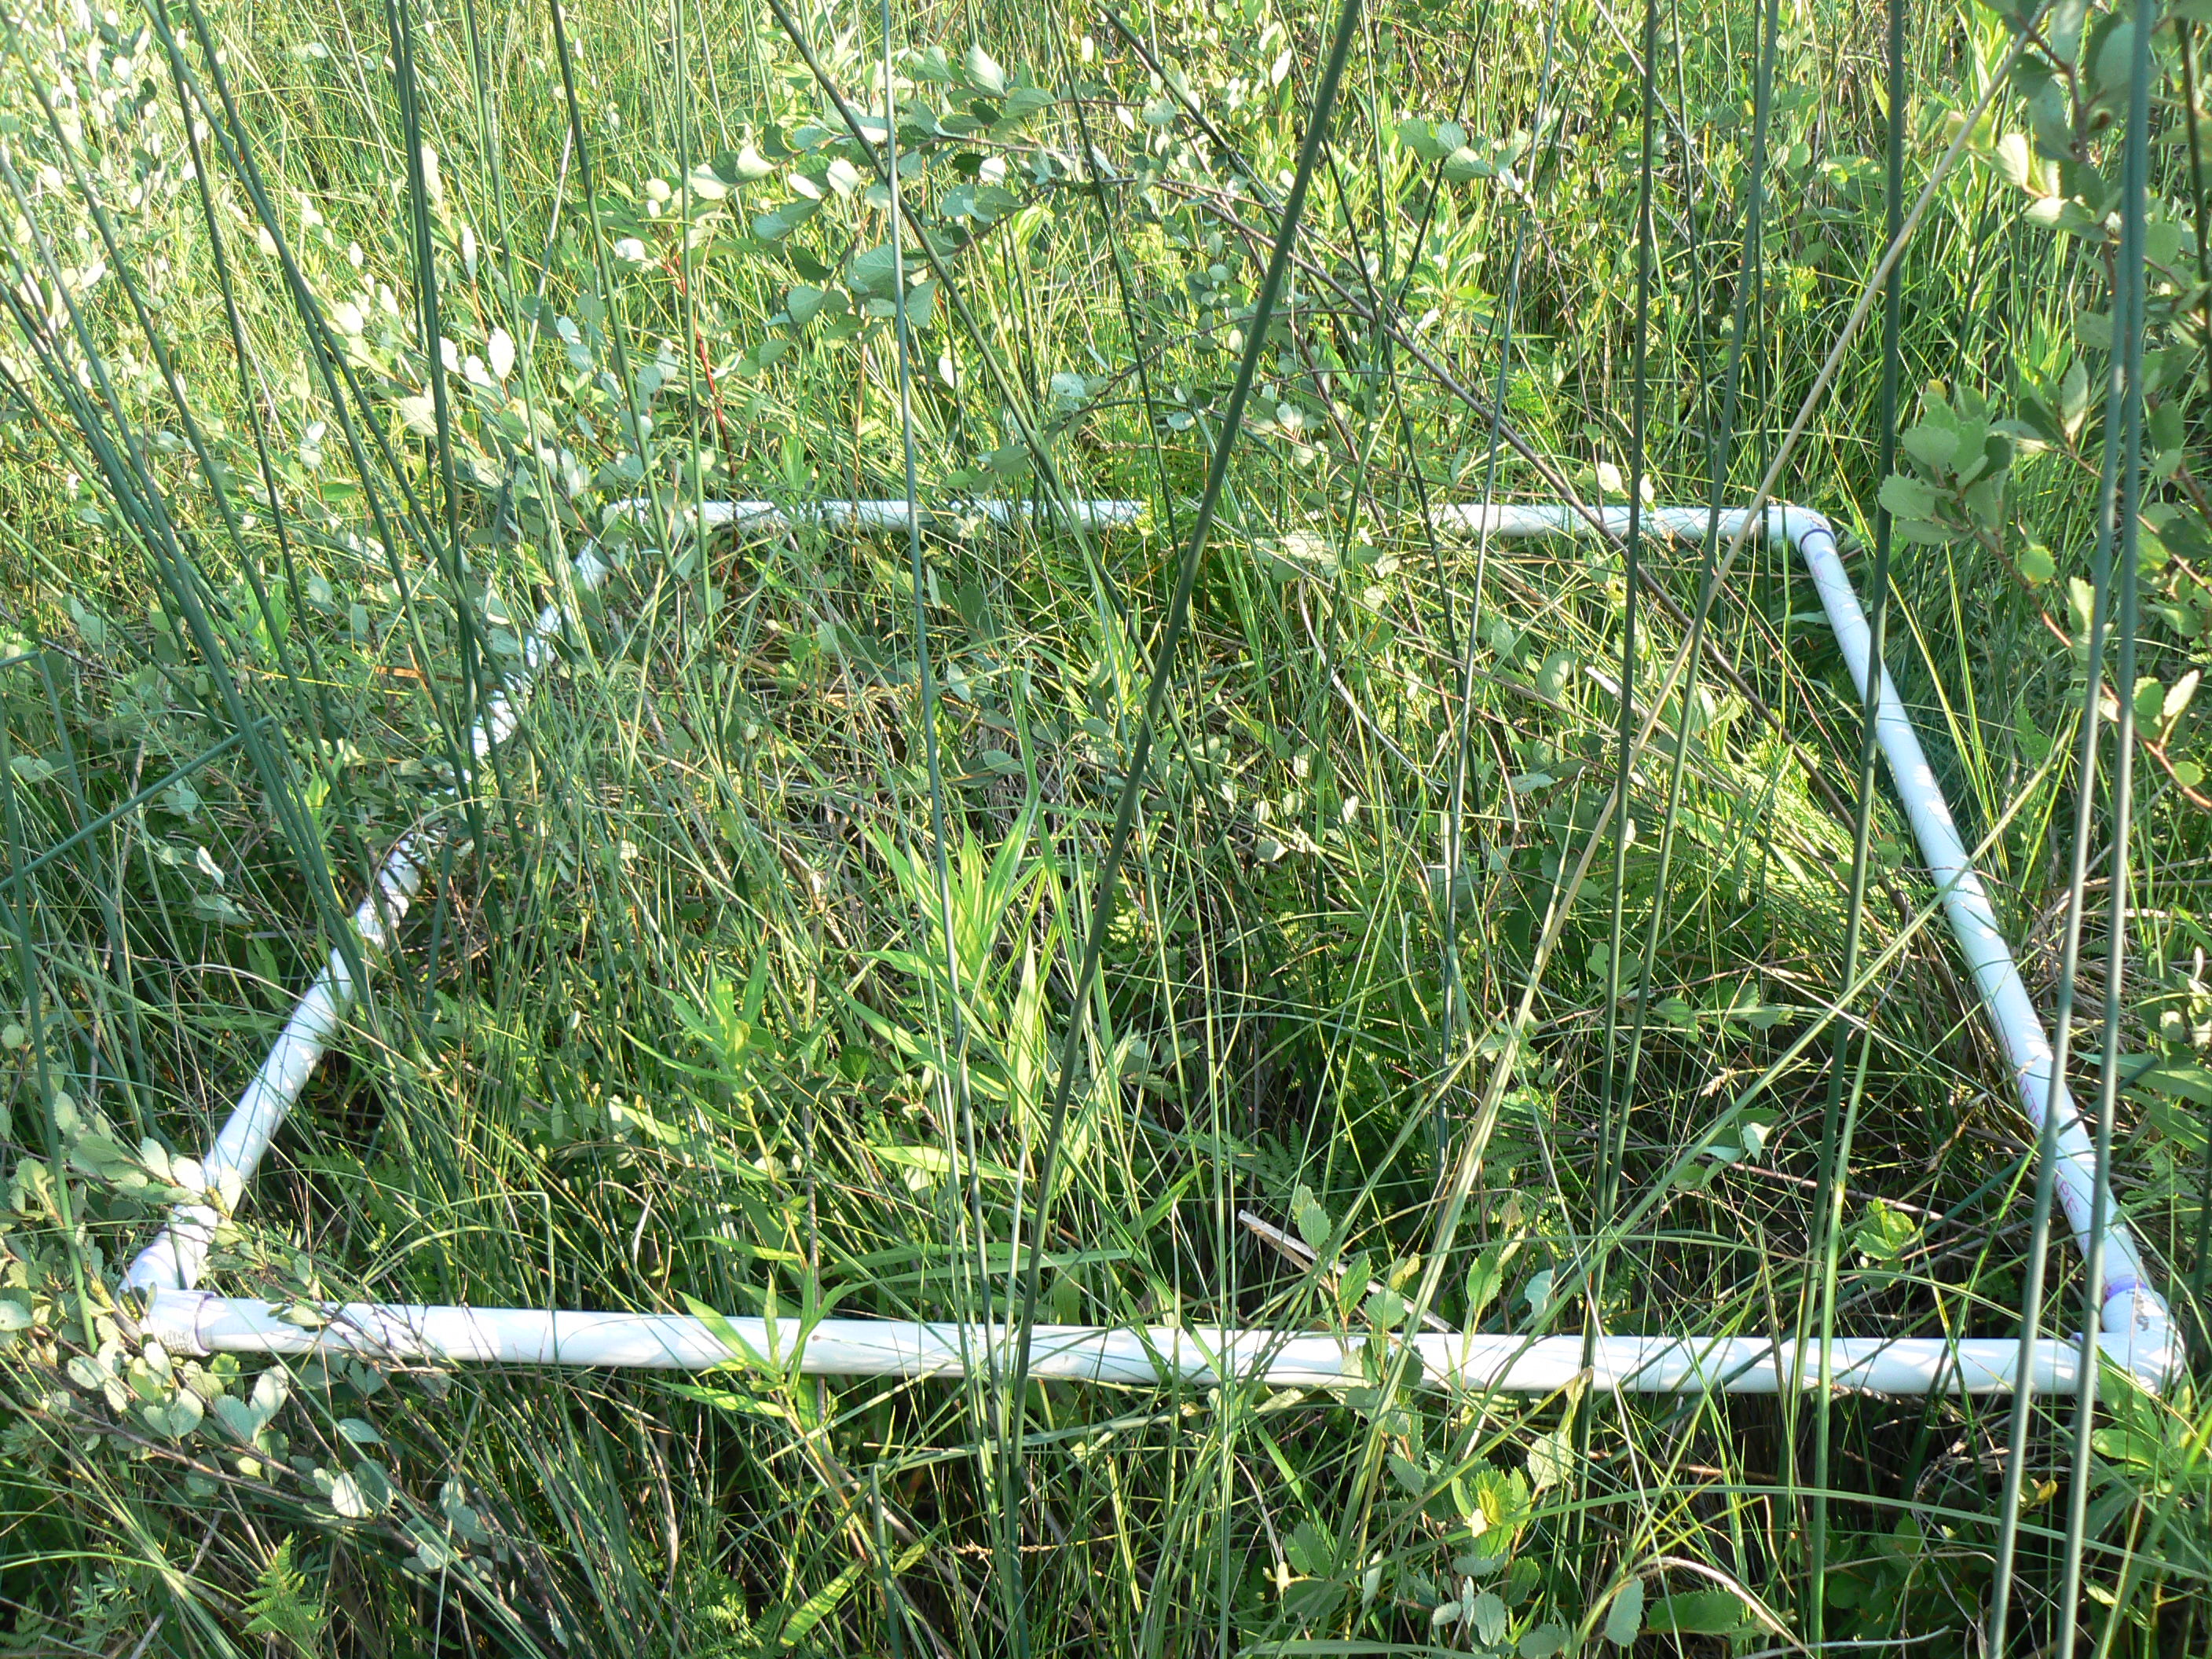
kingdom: Plantae
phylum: Tracheophyta
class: Liliopsida
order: Poales
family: Cyperaceae
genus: Carex
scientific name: Carex prairea
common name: Prairie sedge
